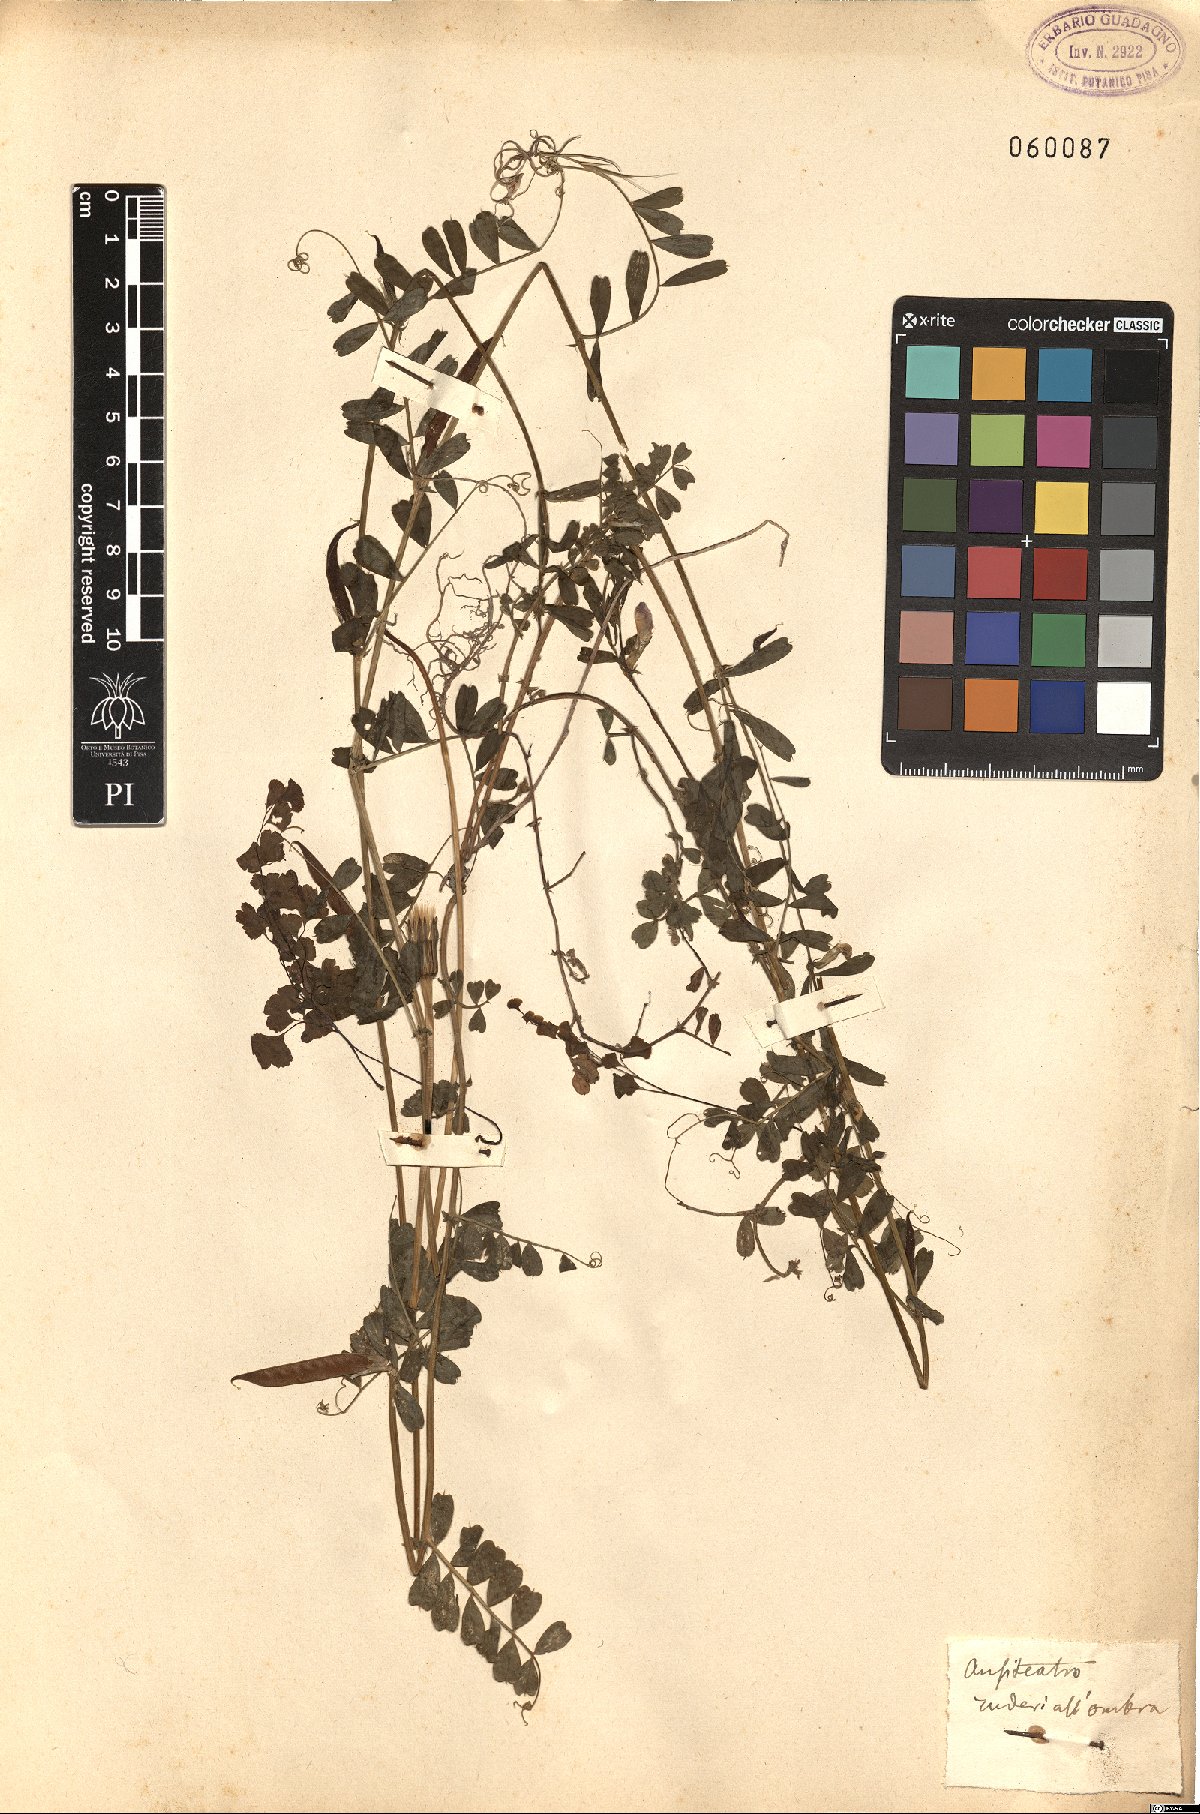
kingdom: Plantae
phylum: Tracheophyta
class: Magnoliopsida
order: Fabales
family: Fabaceae
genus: Vicia
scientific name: Vicia
